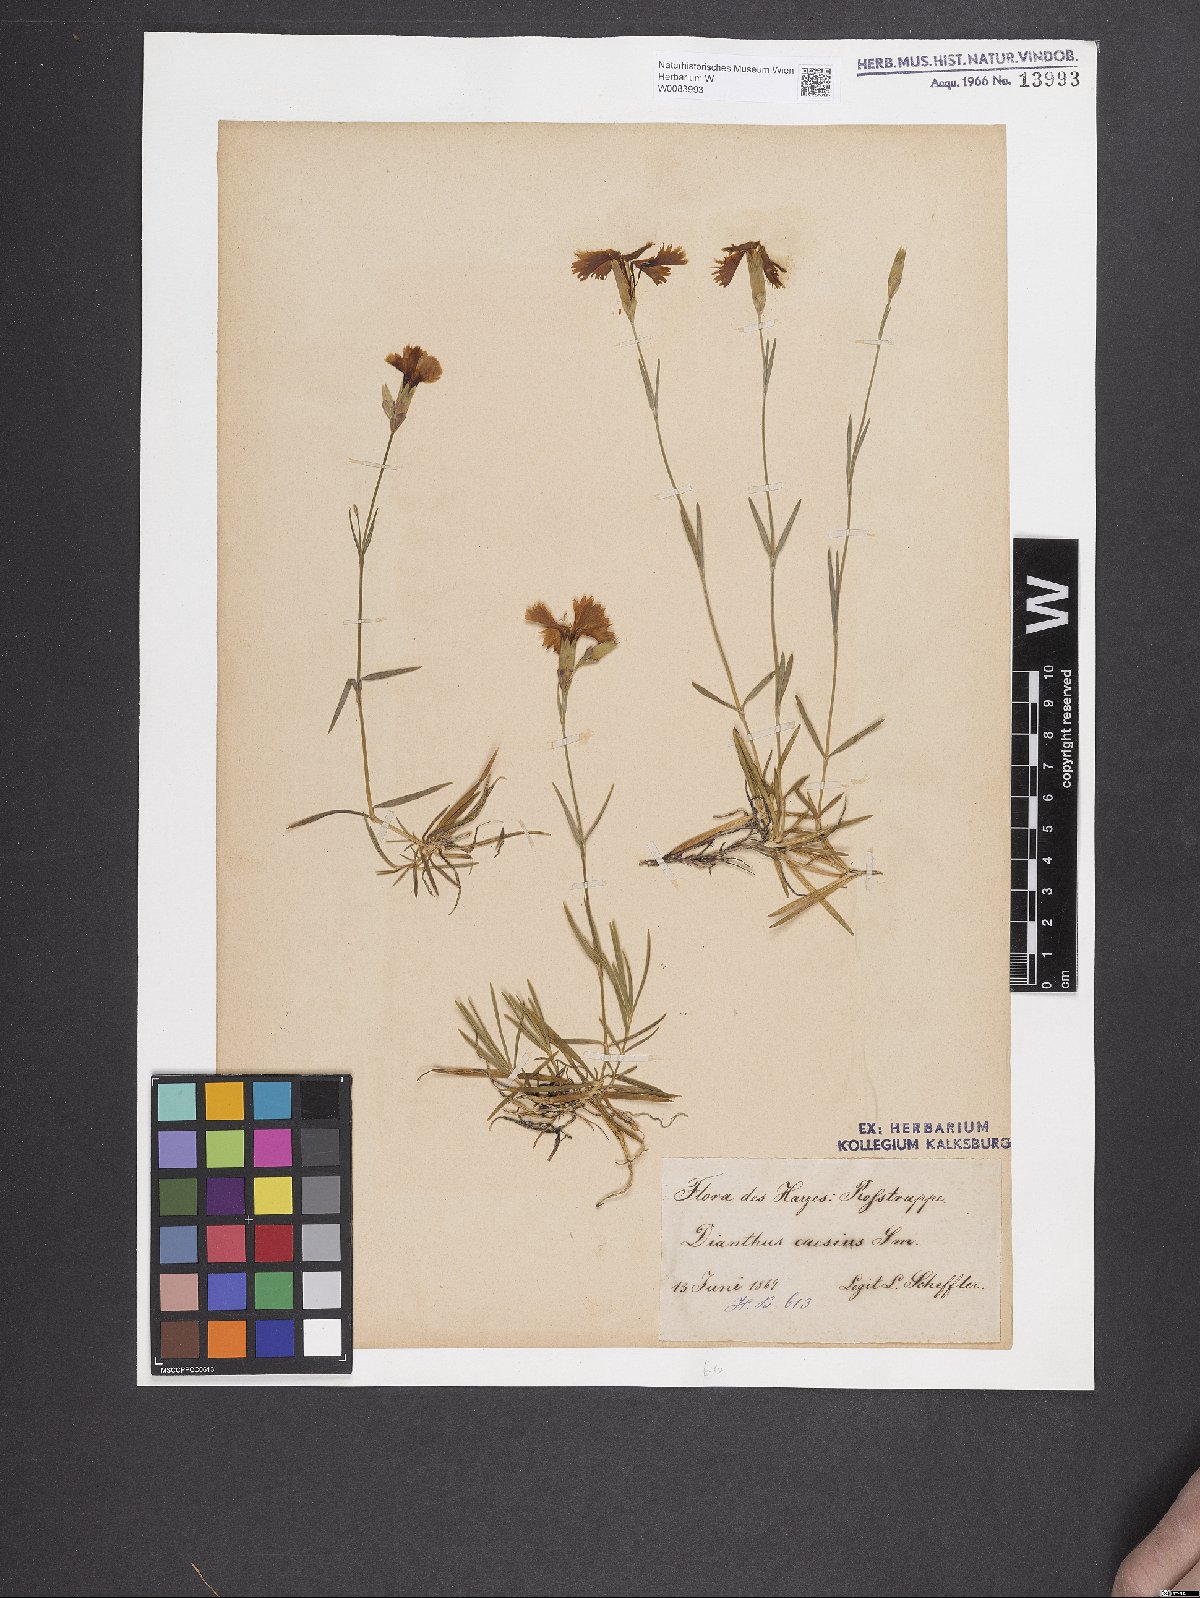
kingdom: Plantae
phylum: Tracheophyta
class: Magnoliopsida
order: Caryophyllales
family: Caryophyllaceae
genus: Dianthus
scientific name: Dianthus gratianopolitanus
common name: Cheddar pink
